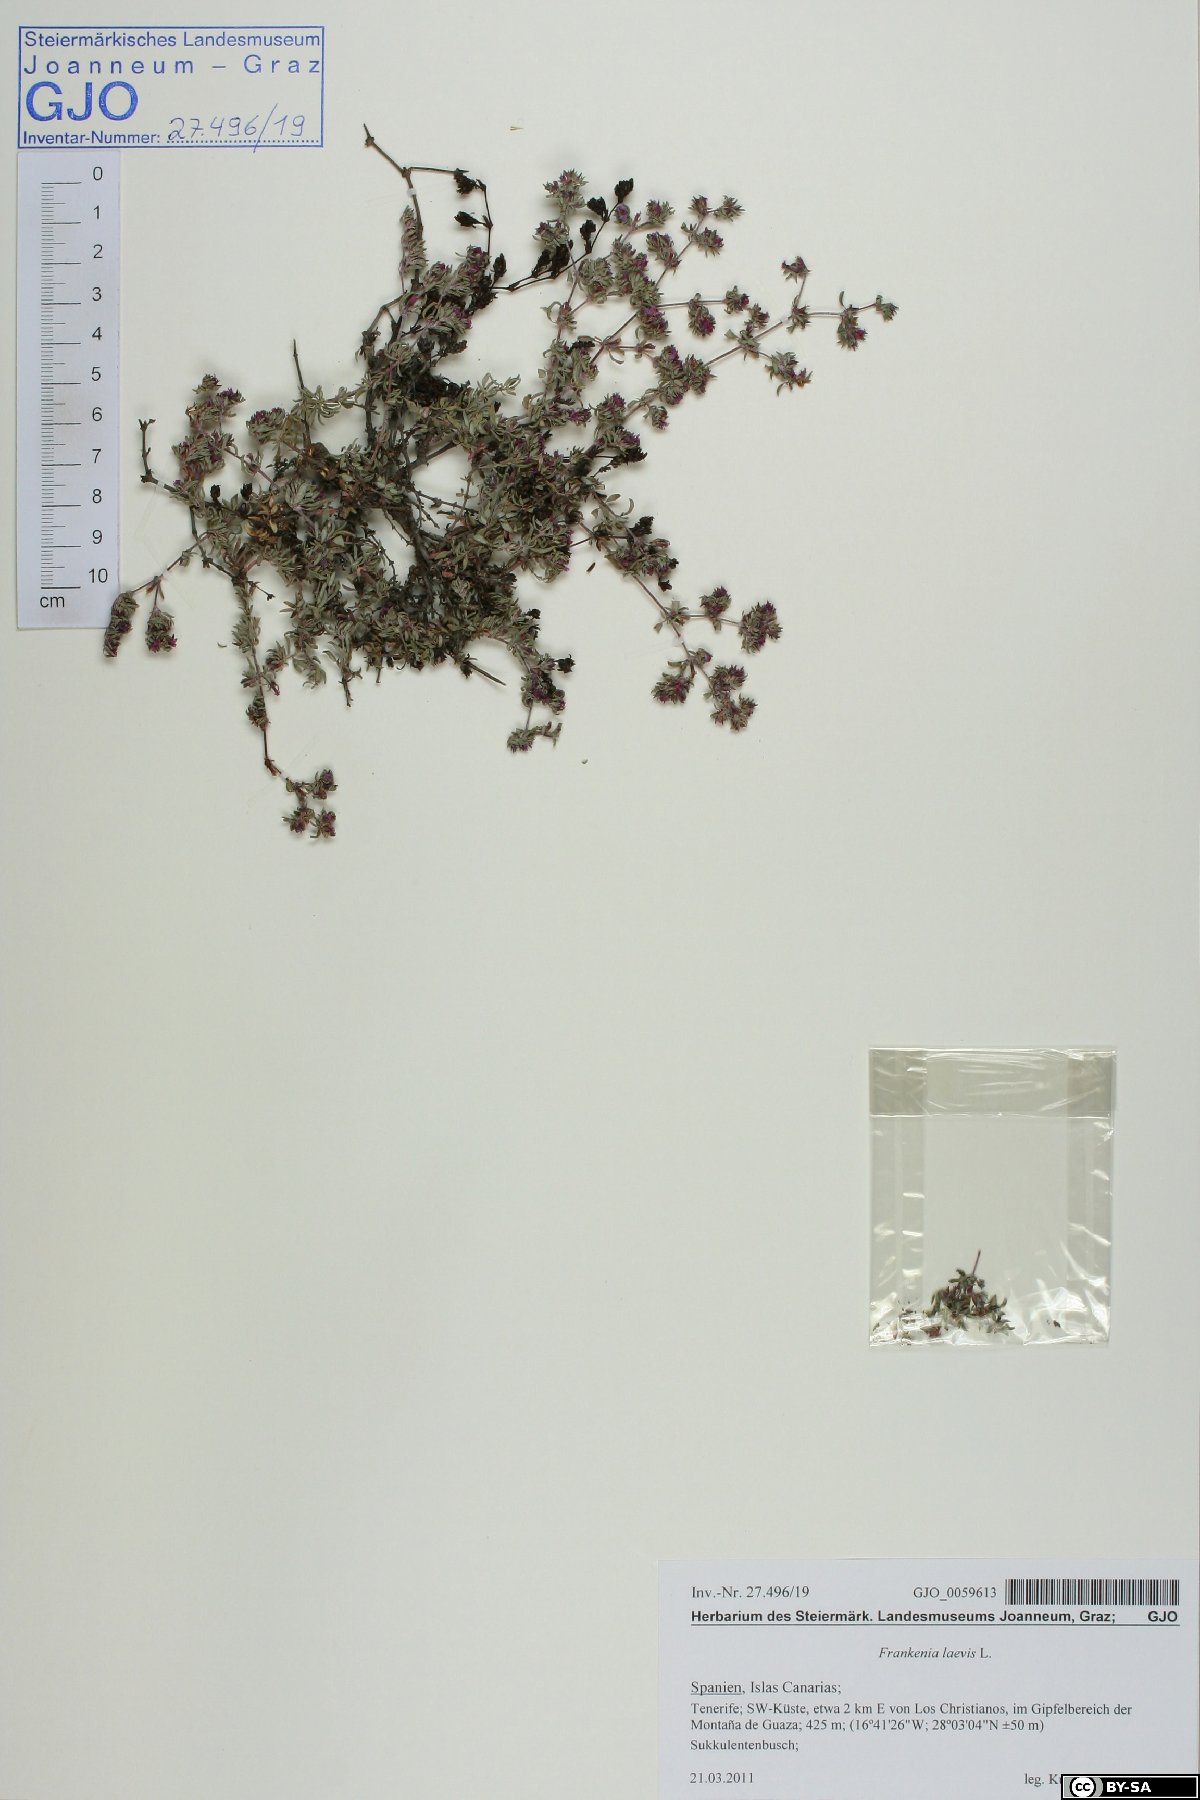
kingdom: Plantae
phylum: Tracheophyta
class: Magnoliopsida
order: Caryophyllales
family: Frankeniaceae
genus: Frankenia
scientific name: Frankenia laevis
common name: Sea-heath
